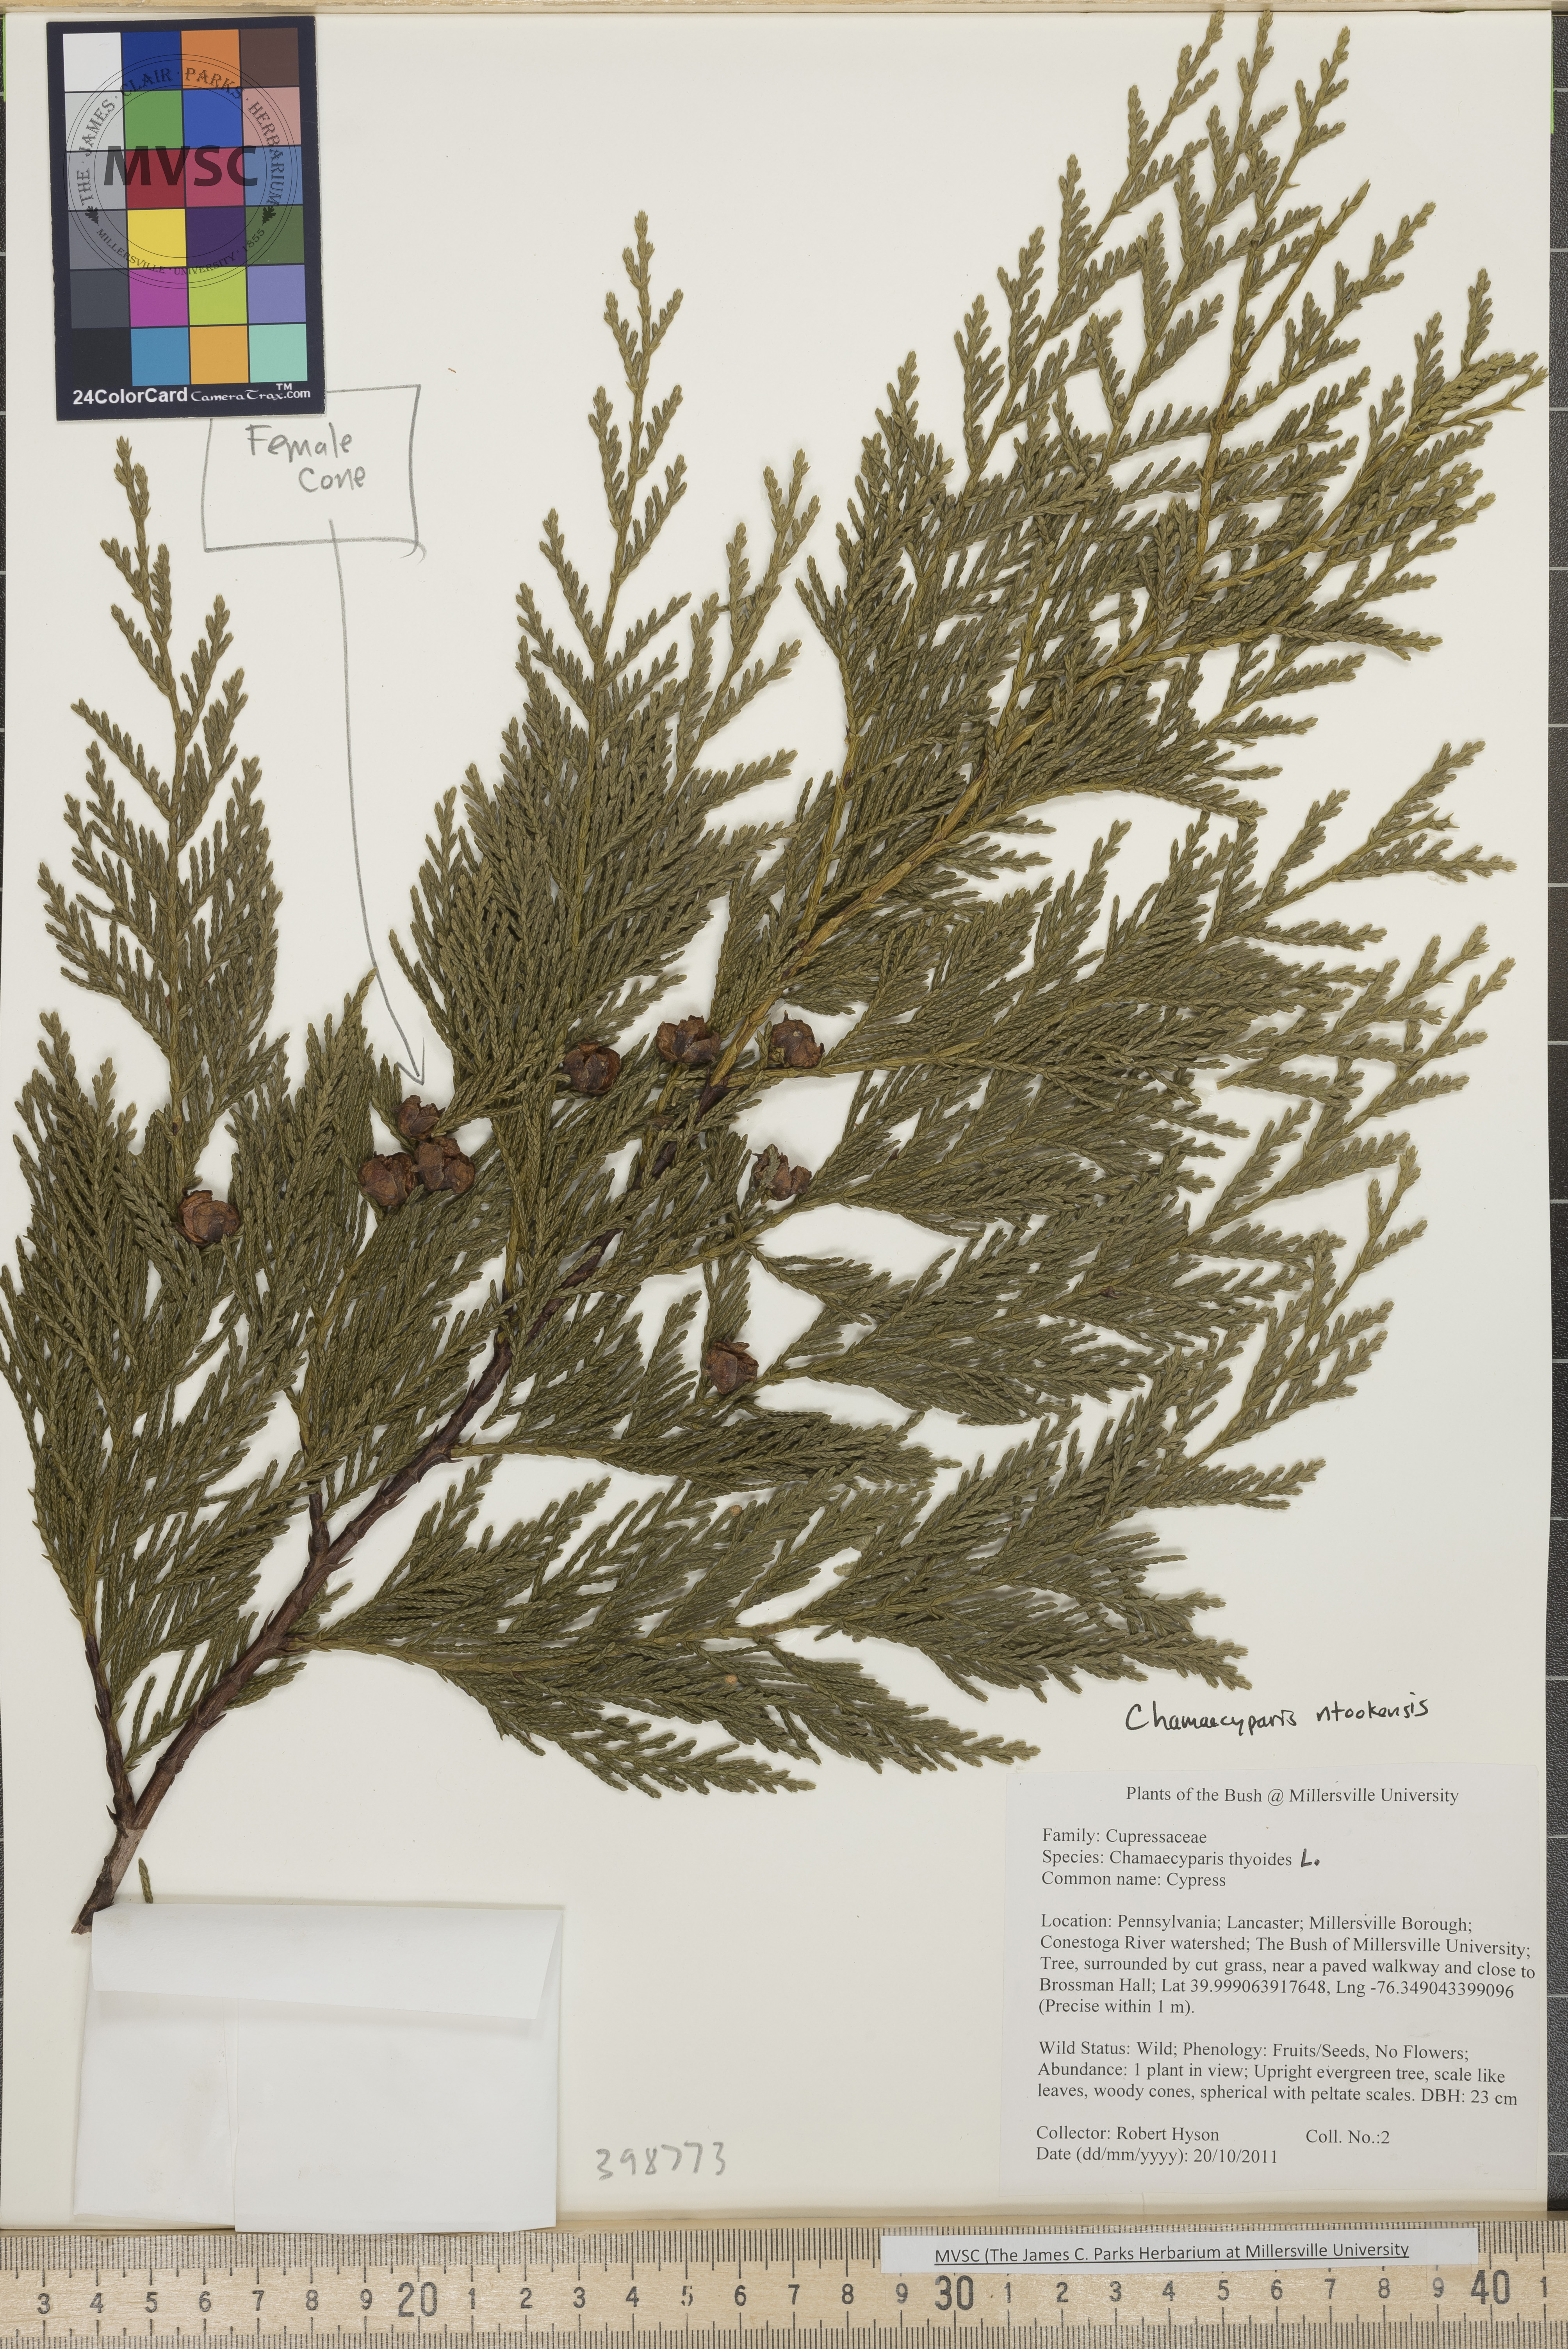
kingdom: Plantae
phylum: Tracheophyta
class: Pinopsida
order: Pinales
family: Cupressaceae
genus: Xanthocyparis
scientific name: Xanthocyparis nootkatensis
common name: Alaska cedar
